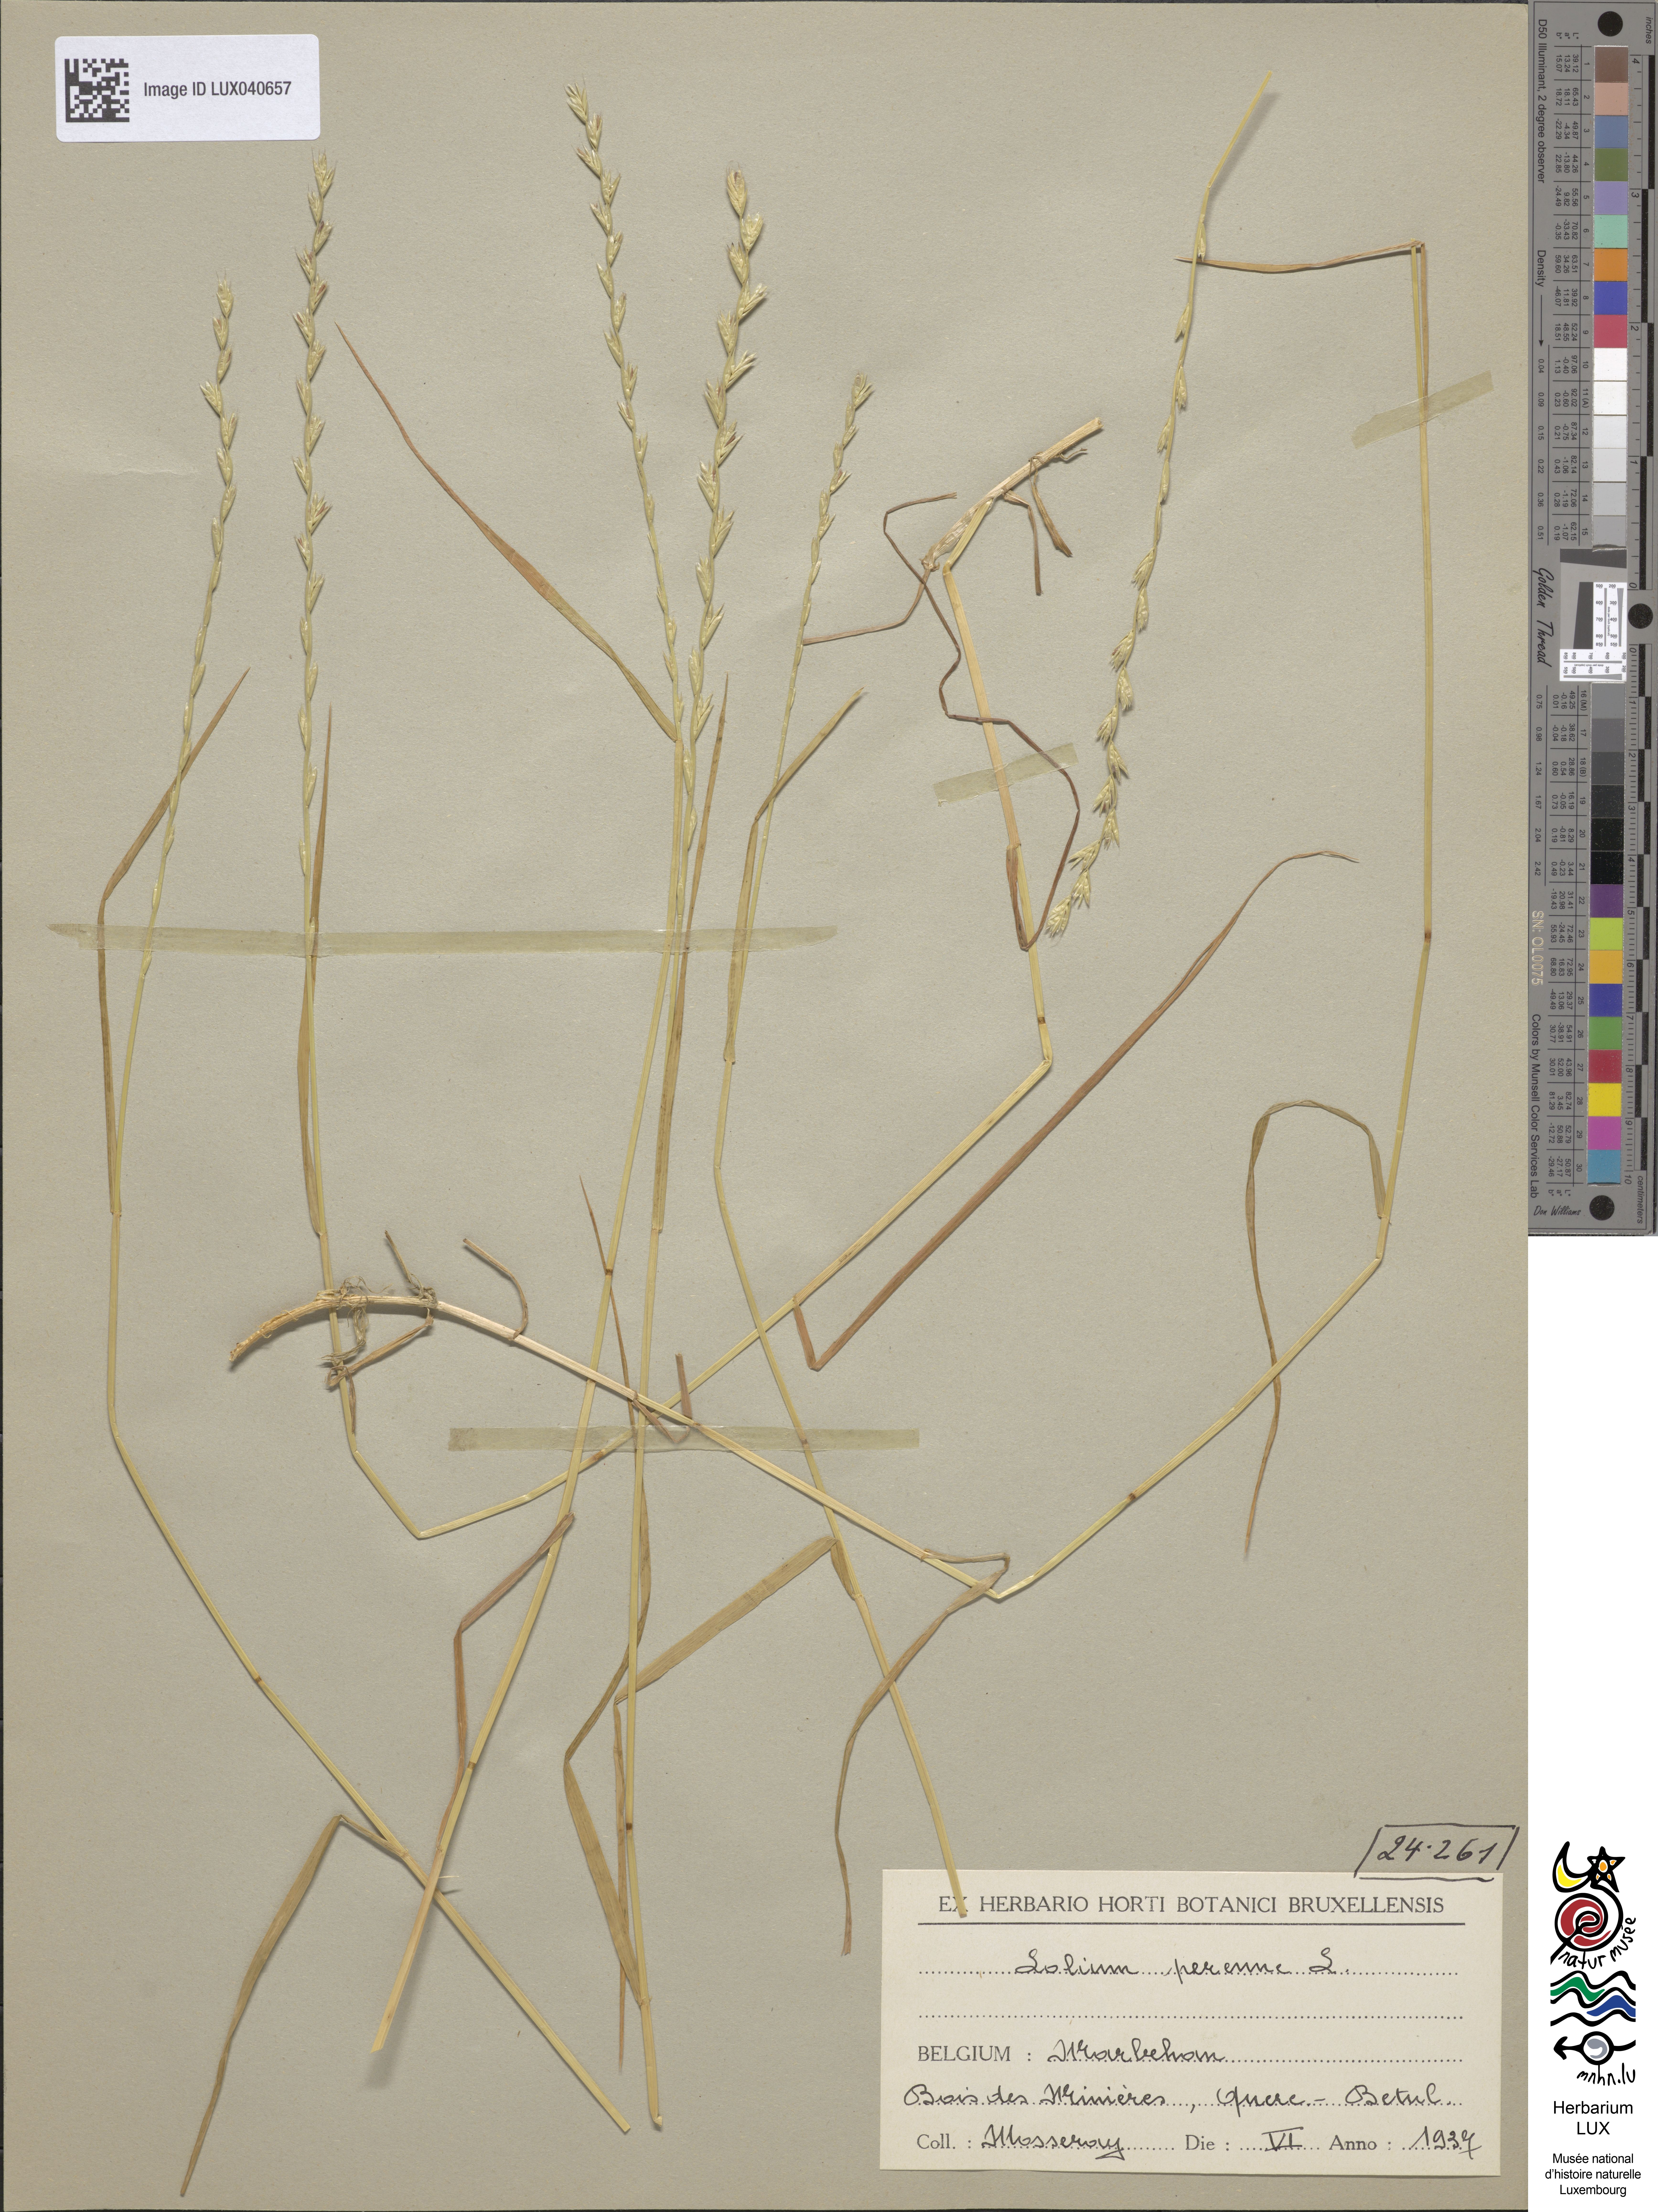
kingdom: Plantae
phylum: Tracheophyta
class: Liliopsida
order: Poales
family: Poaceae
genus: Lolium
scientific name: Lolium perenne
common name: Perennial ryegrass
